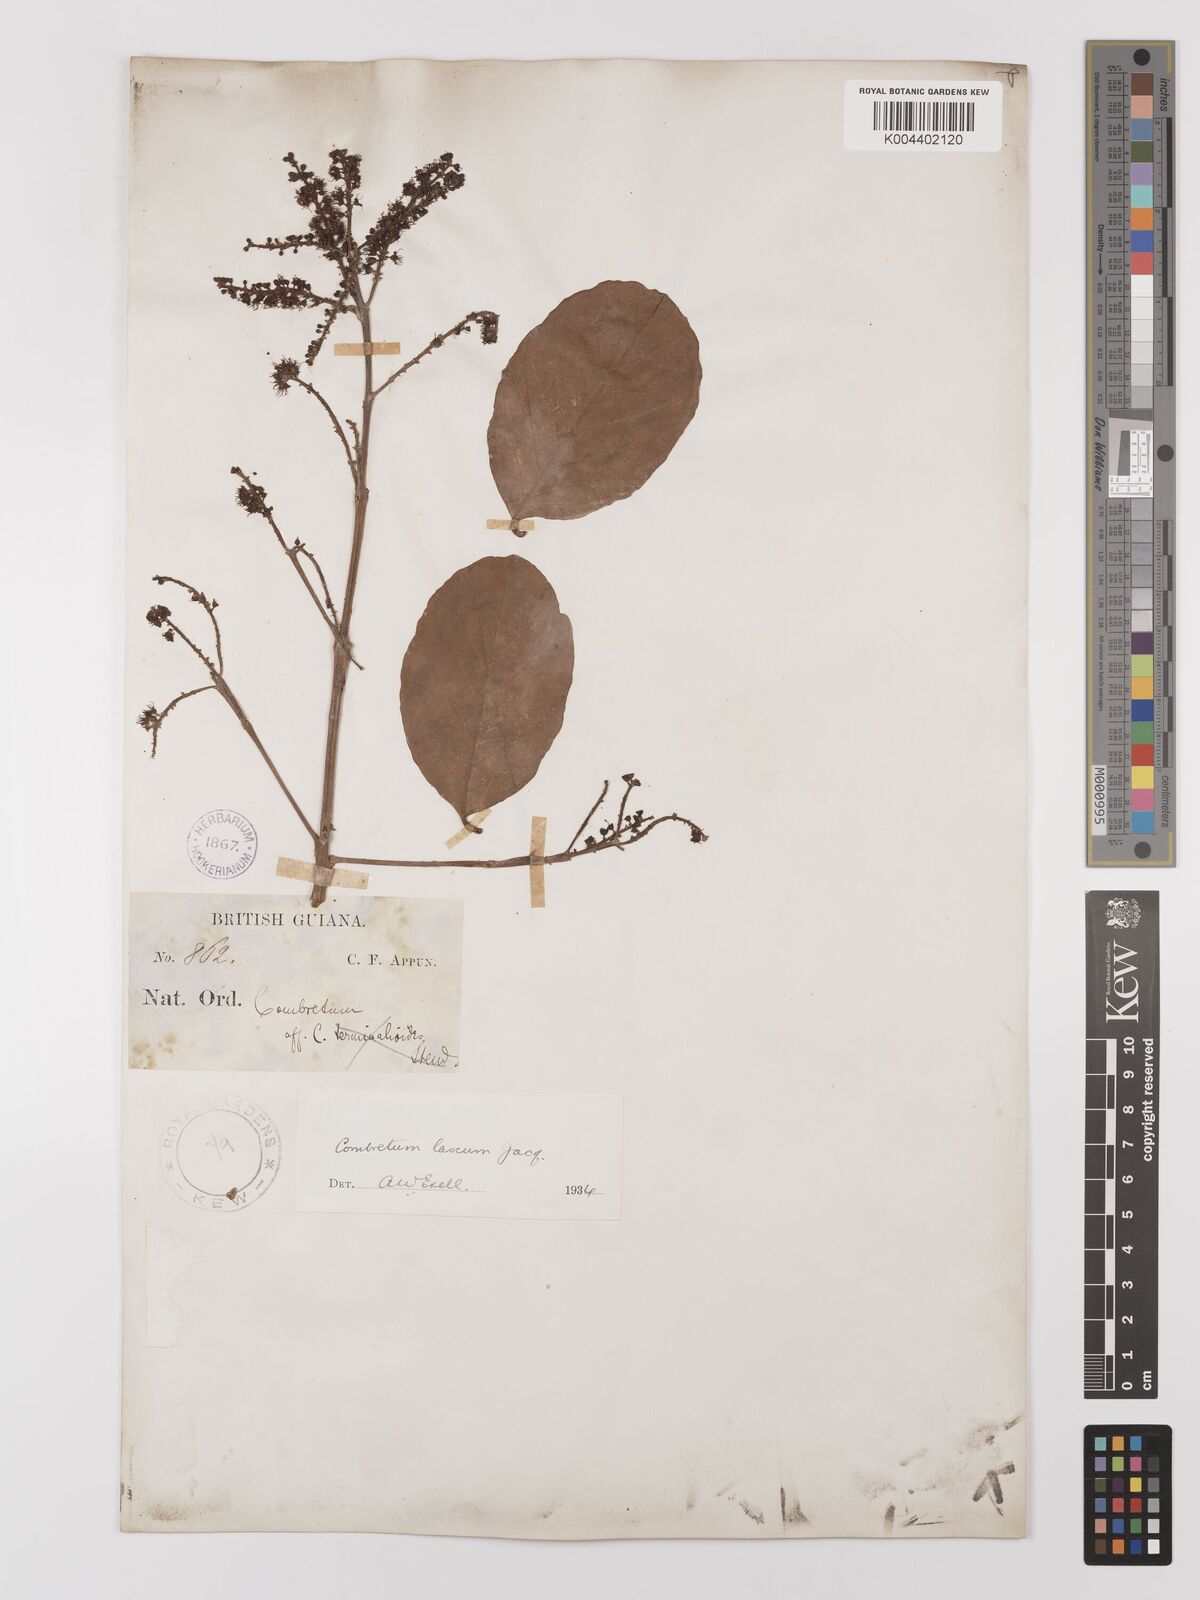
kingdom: Plantae
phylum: Tracheophyta
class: Magnoliopsida
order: Myrtales
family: Combretaceae
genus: Combretum
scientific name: Combretum
